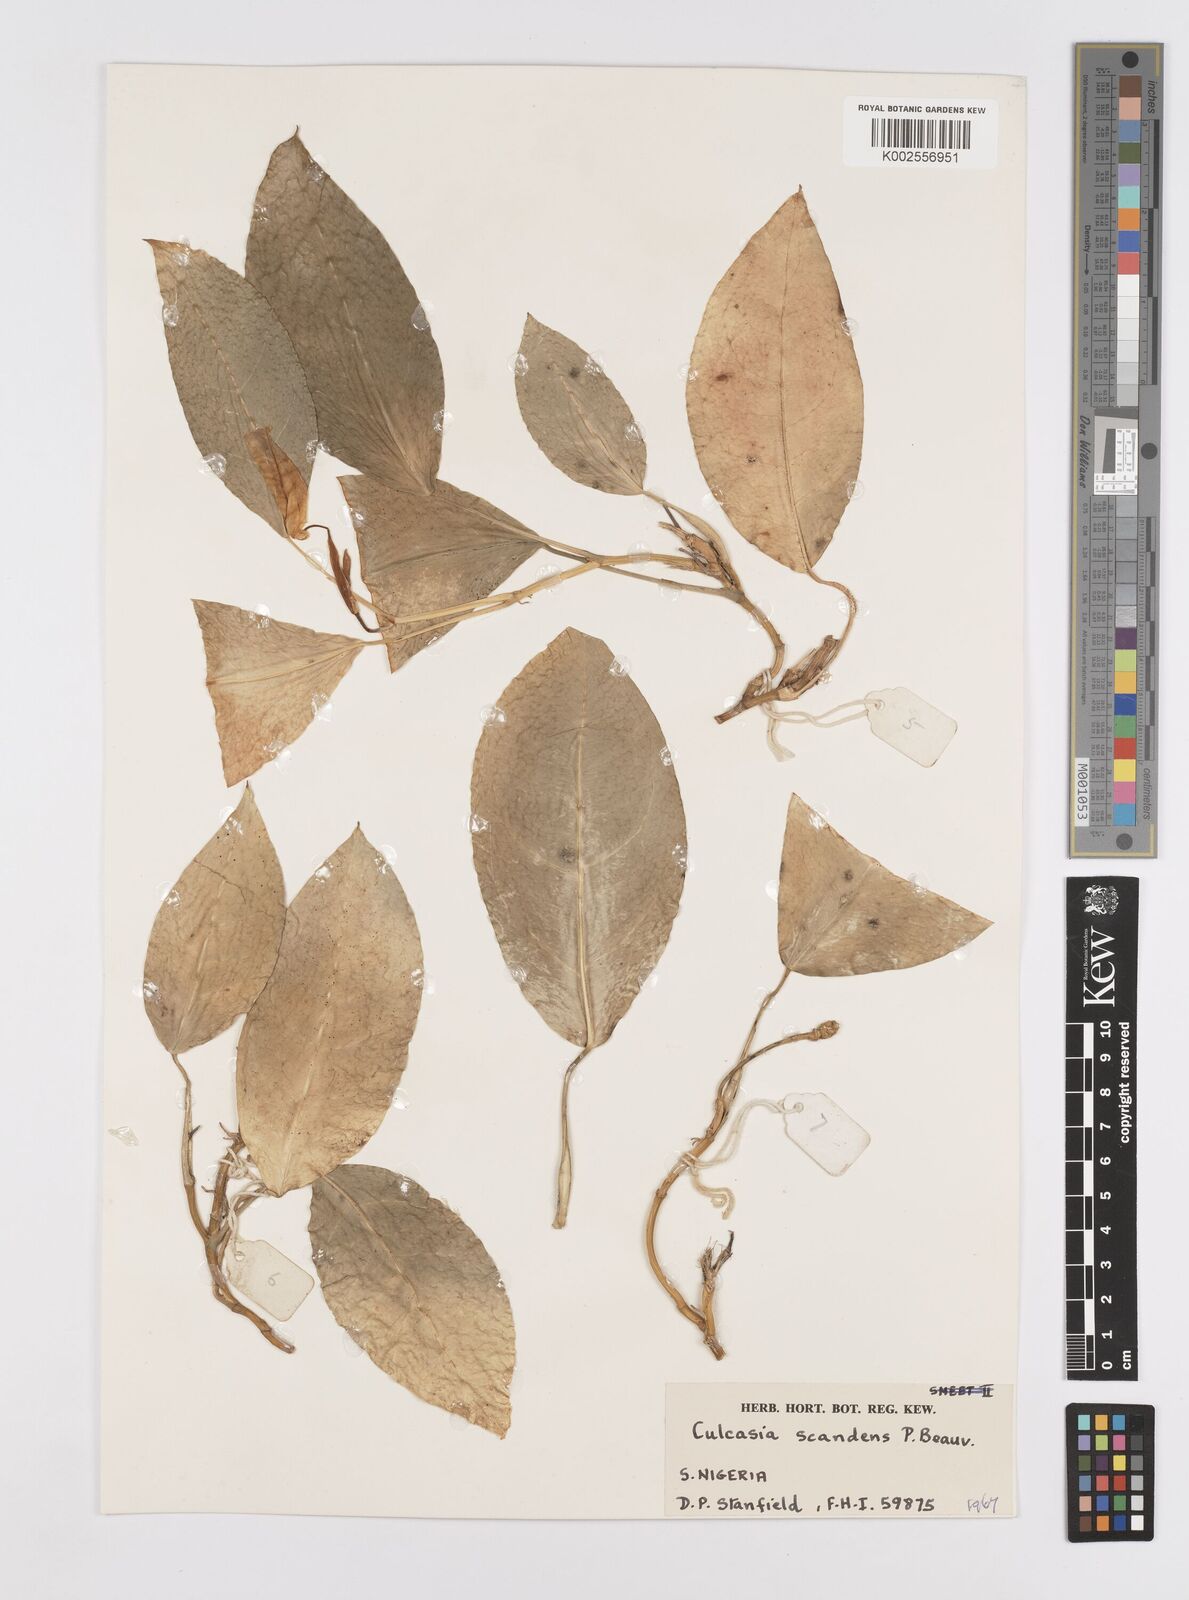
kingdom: Plantae
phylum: Tracheophyta
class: Liliopsida
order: Alismatales
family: Araceae
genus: Culcasia
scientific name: Culcasia scandens
